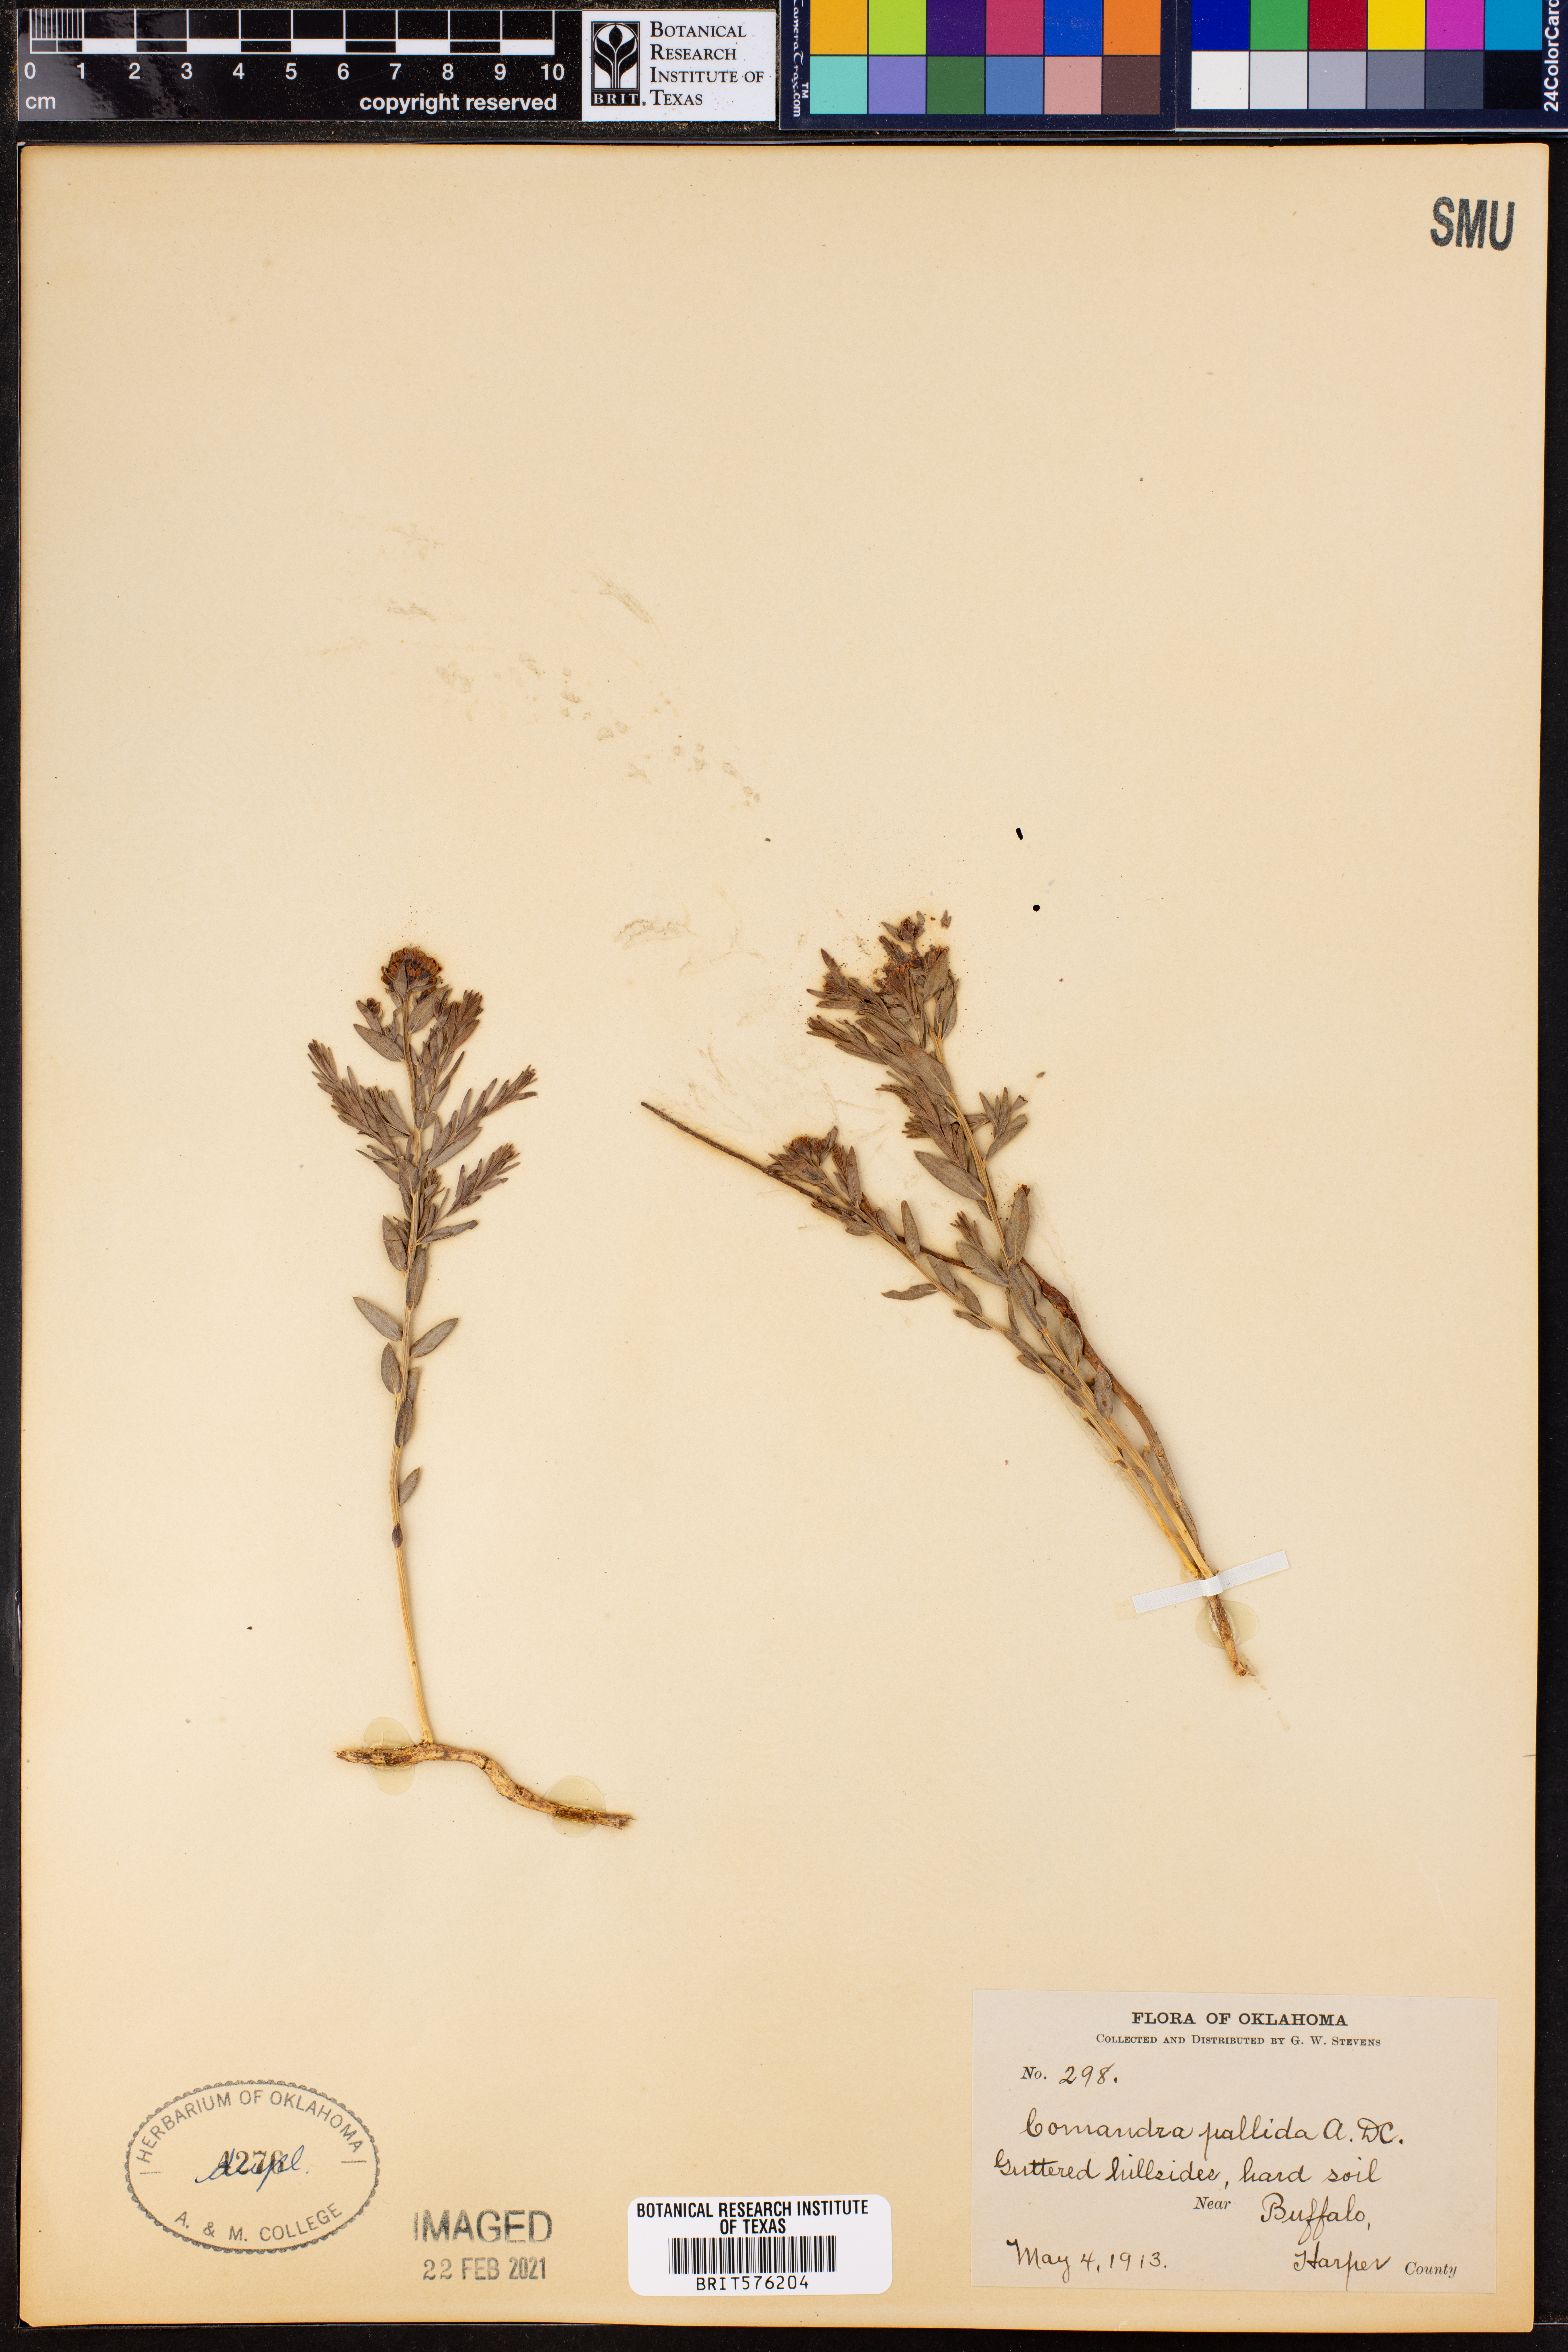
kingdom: Plantae
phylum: Tracheophyta
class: Magnoliopsida
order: Santalales
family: Comandraceae
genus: Comandra
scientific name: Comandra umbellata
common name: Bastard toadflax
